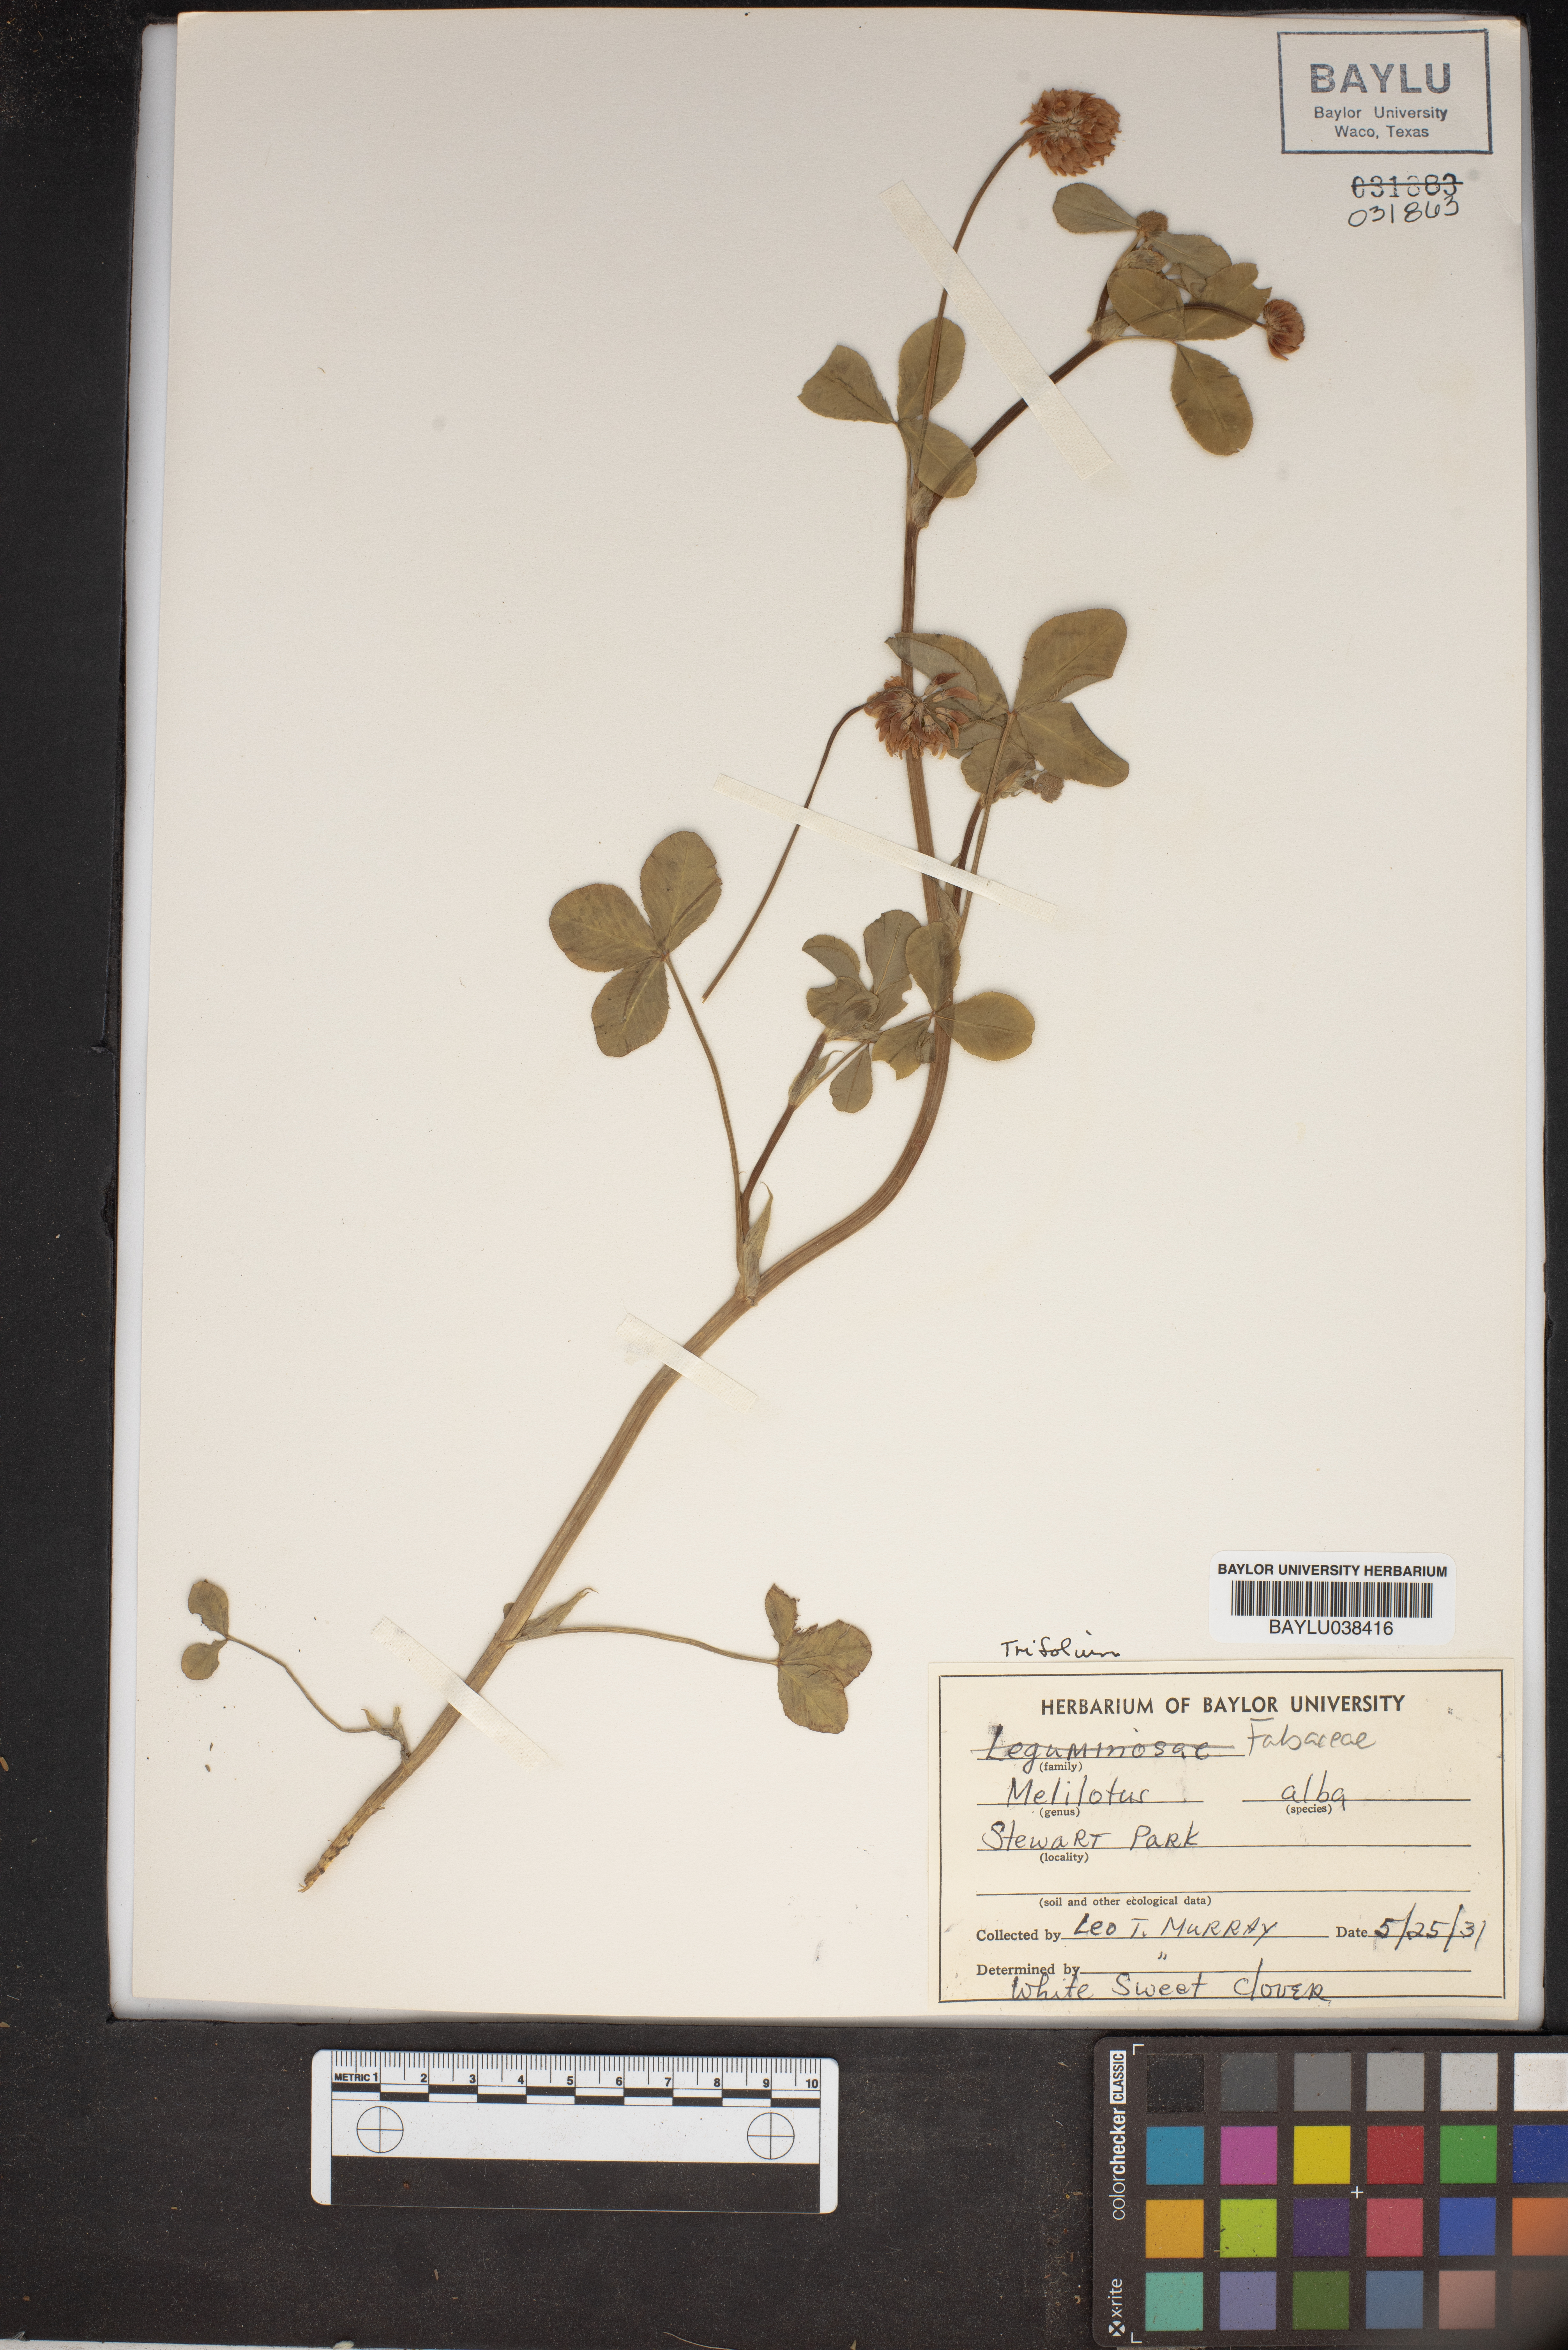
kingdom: Plantae
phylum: Tracheophyta
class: Magnoliopsida
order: Fabales
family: Fabaceae
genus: Melilotus
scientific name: Melilotus albus
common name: White melilot
